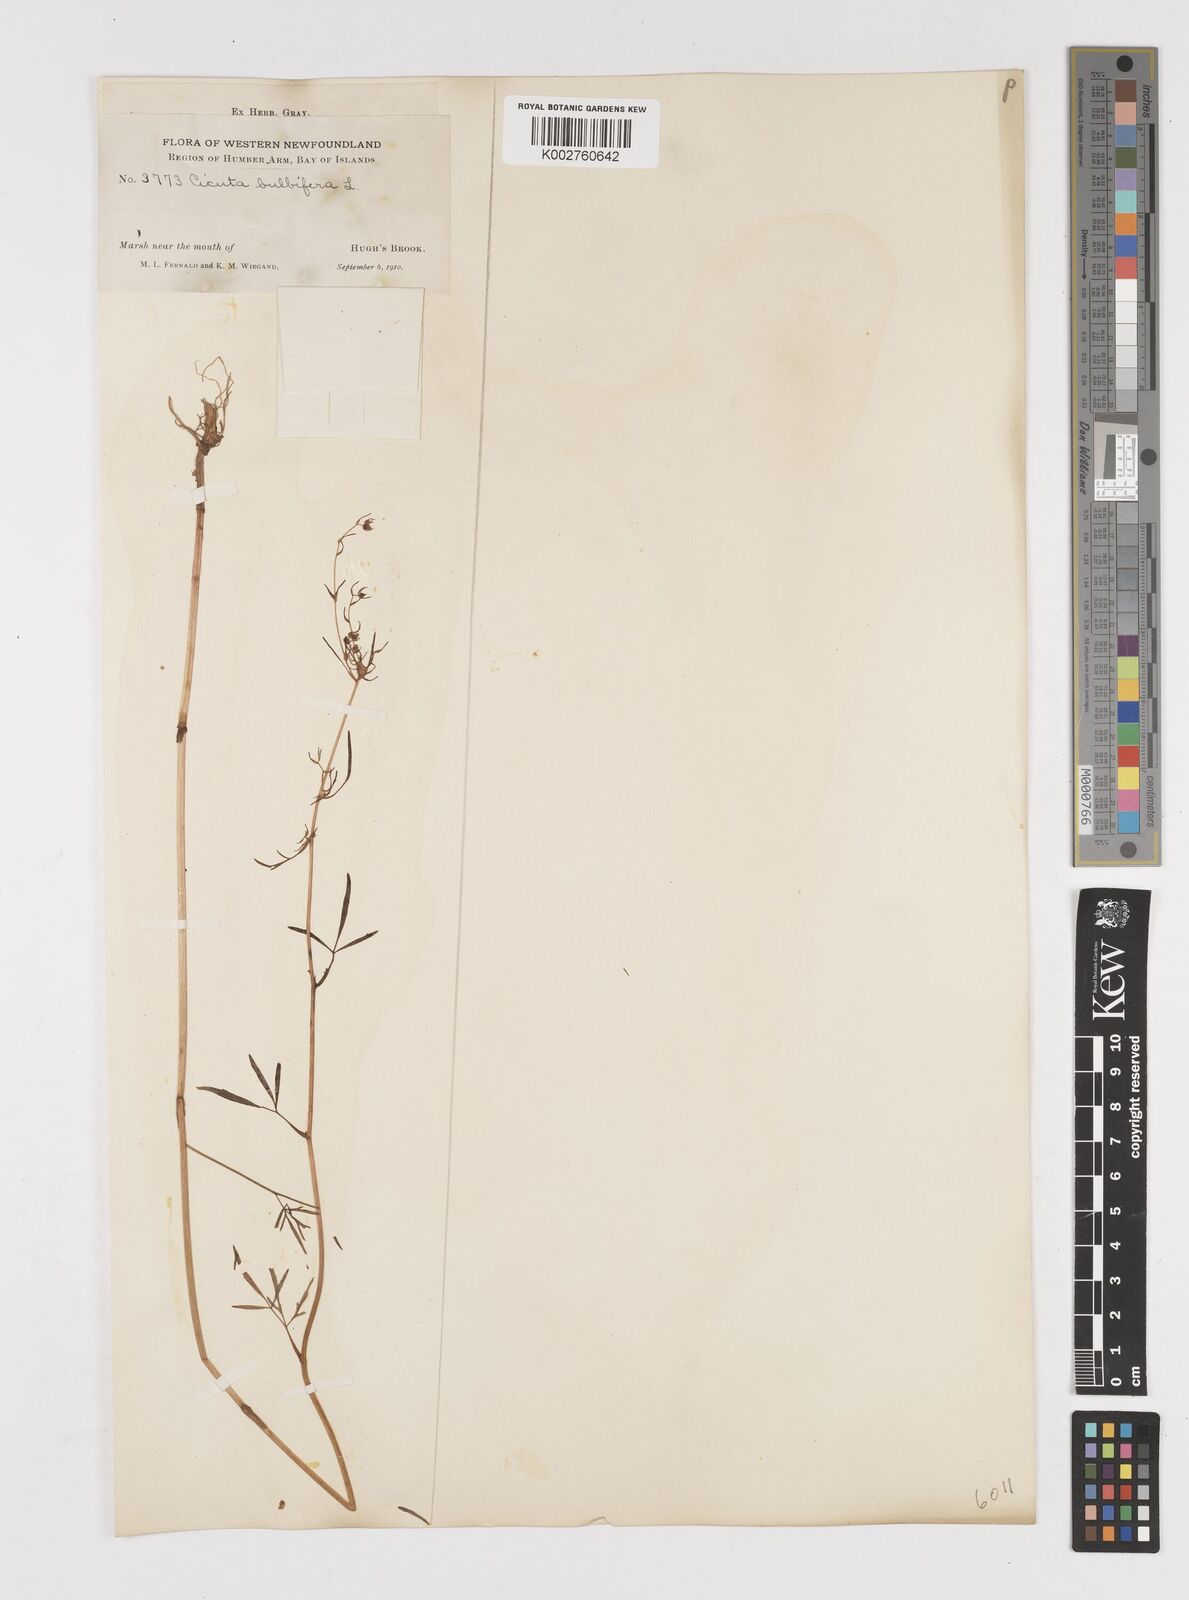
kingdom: Plantae
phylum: Tracheophyta
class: Magnoliopsida
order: Apiales
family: Apiaceae
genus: Cicuta
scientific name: Cicuta bulbifera
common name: Bulb-bearing water-hemlock
